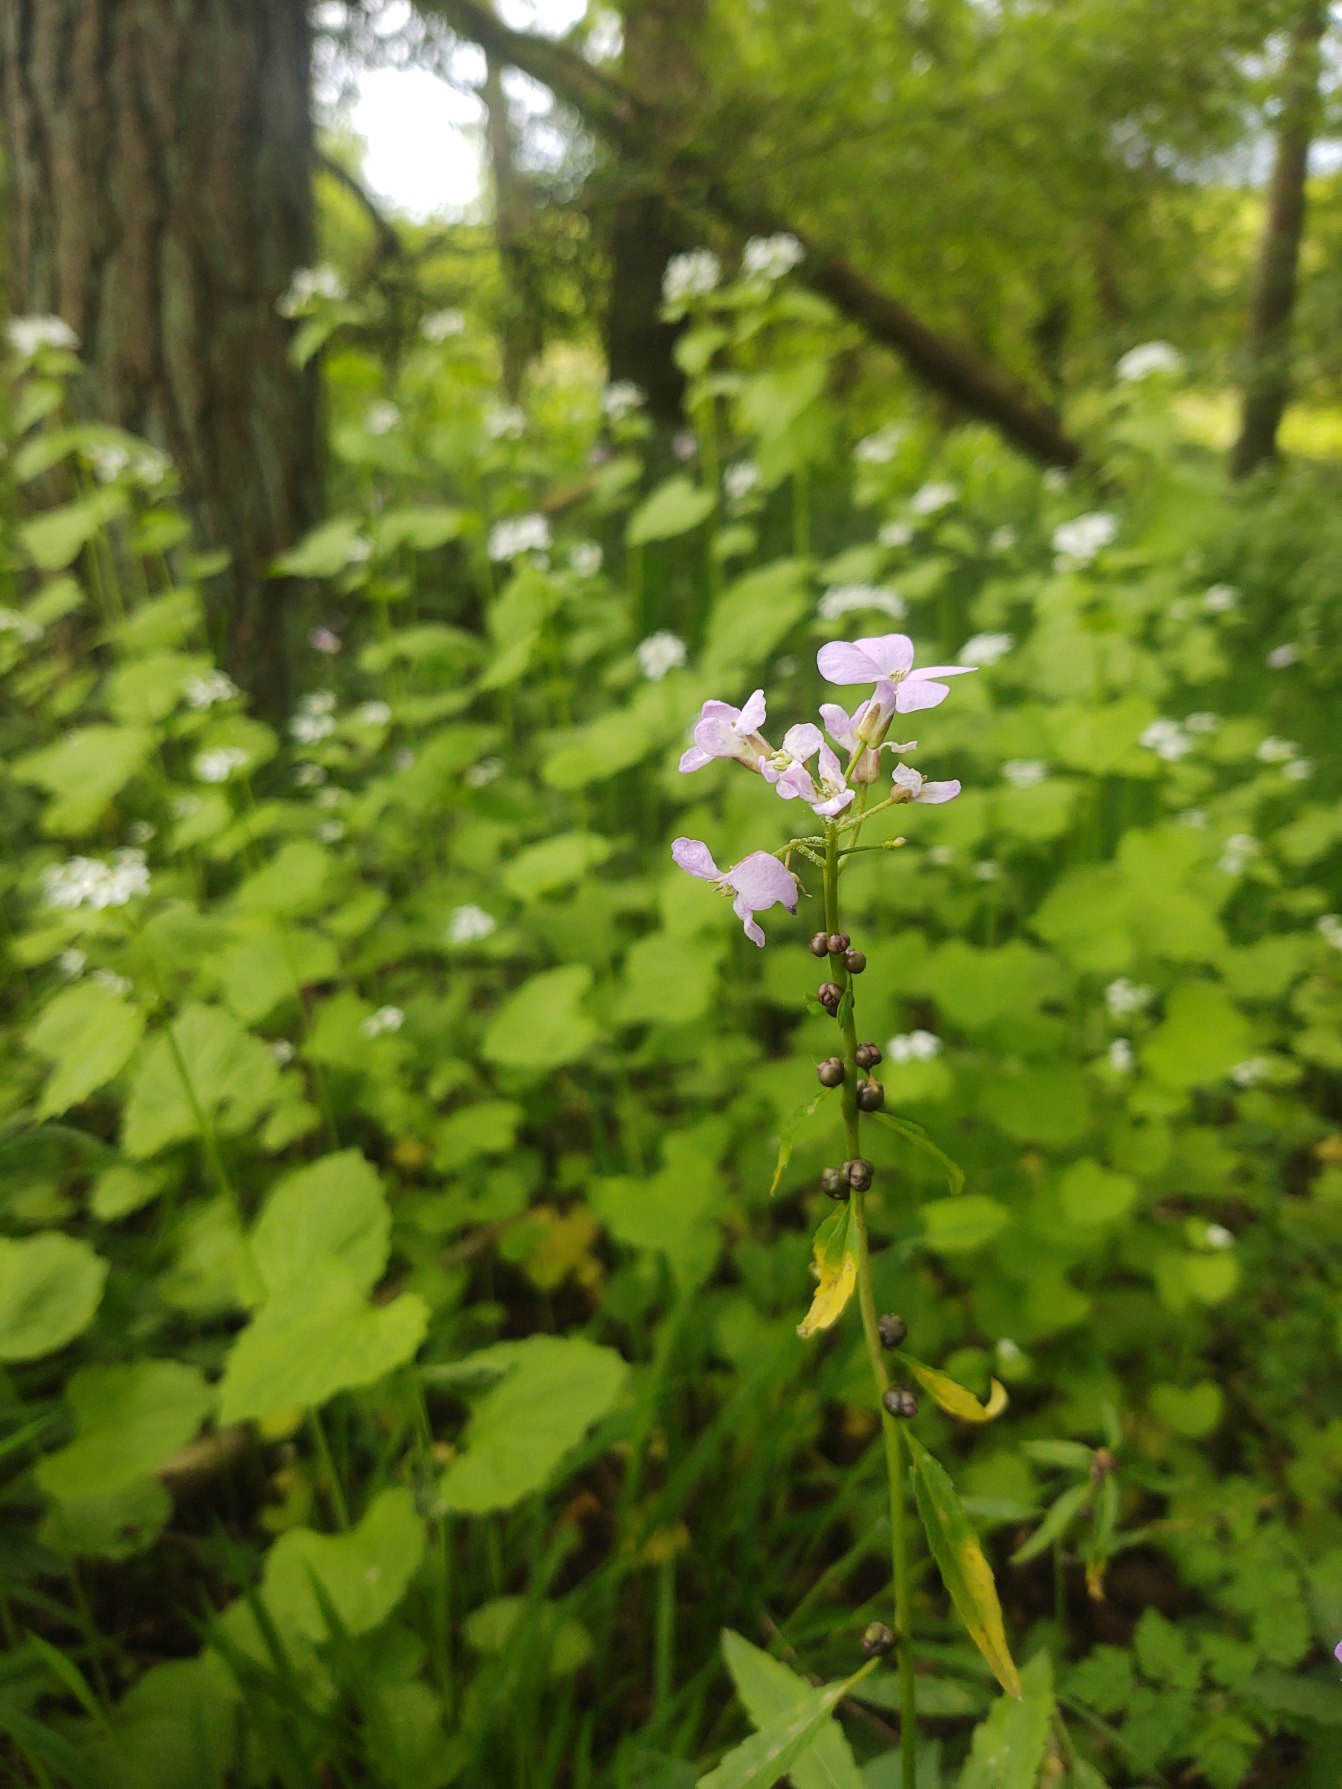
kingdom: Plantae
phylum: Tracheophyta
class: Magnoliopsida
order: Brassicales
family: Brassicaceae
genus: Cardamine
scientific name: Cardamine bulbifera
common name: Tandrod
